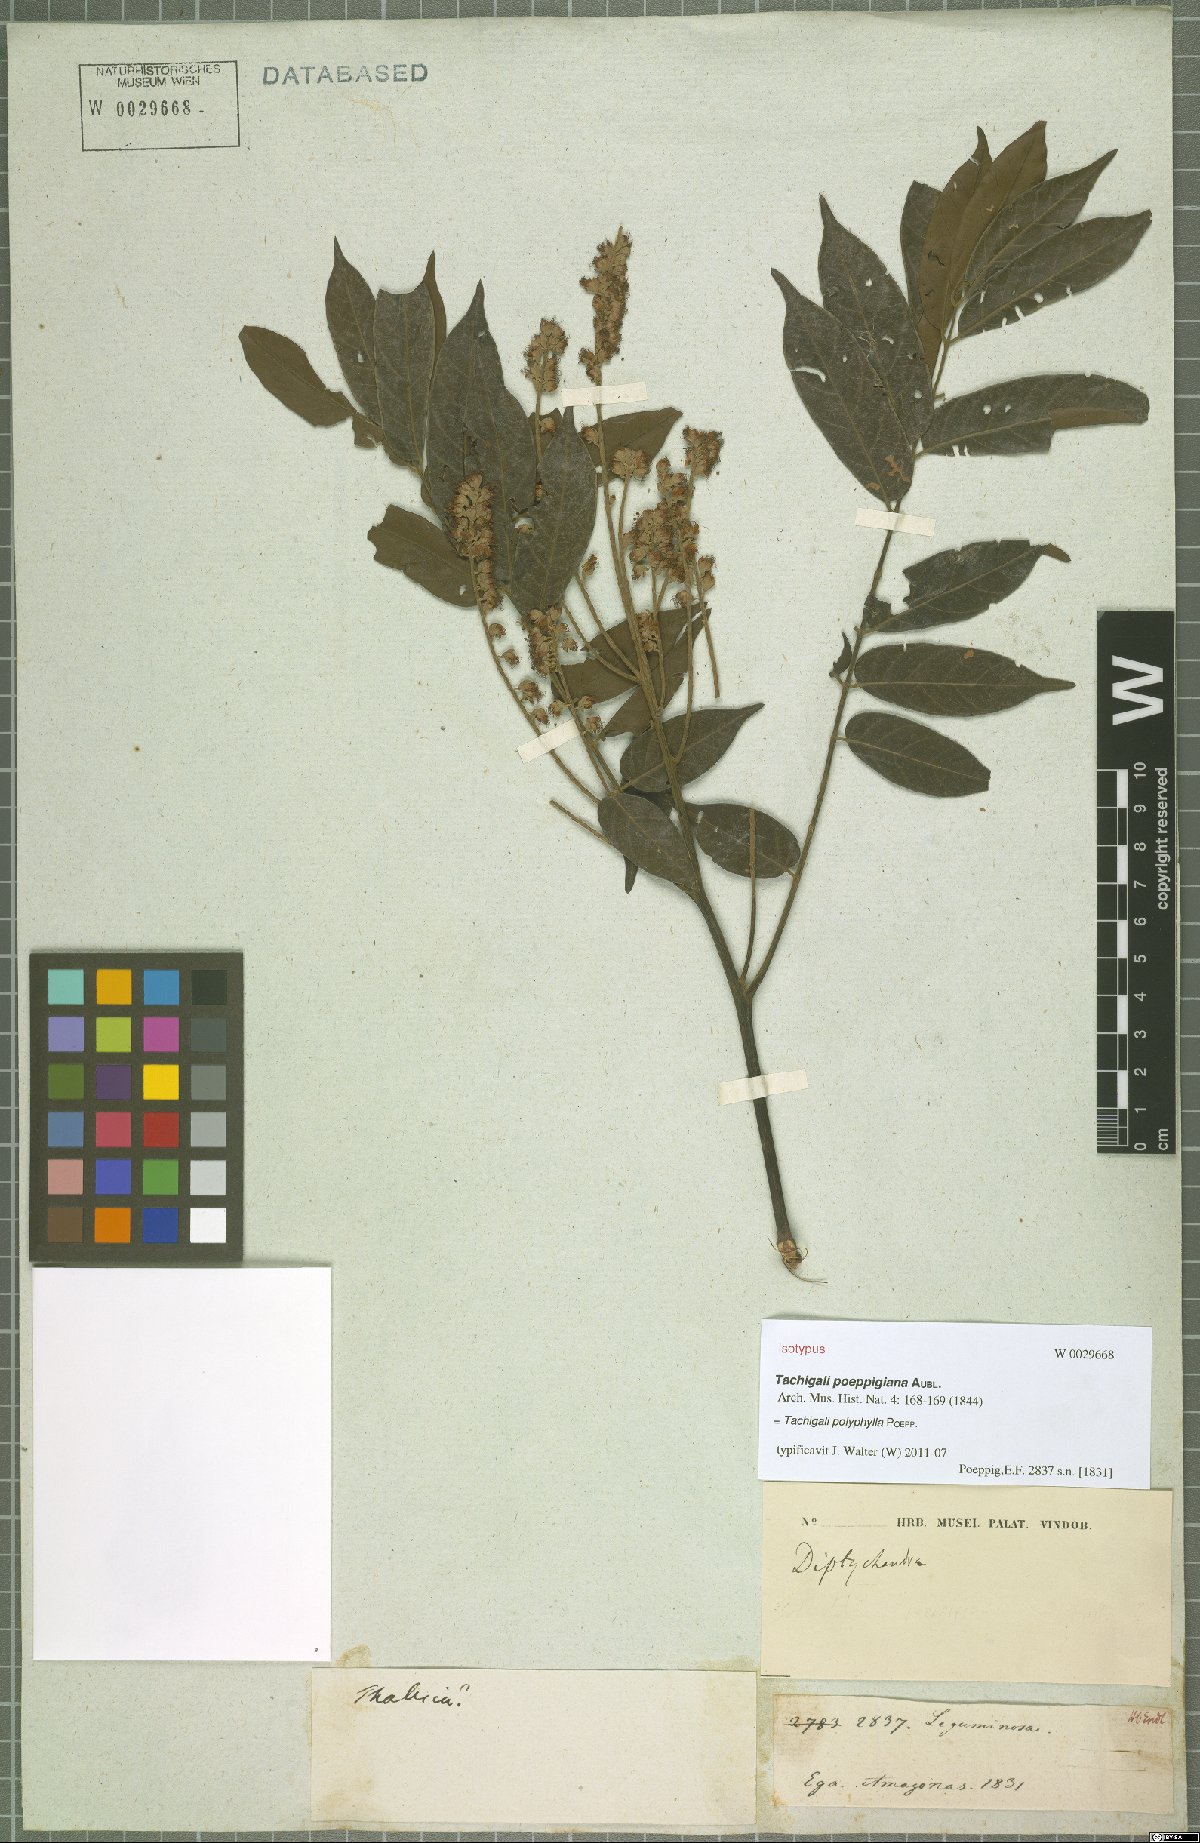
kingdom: Plantae
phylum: Tracheophyta
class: Magnoliopsida
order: Fabales
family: Fabaceae
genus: Tachigali
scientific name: Tachigali poeppigiana
